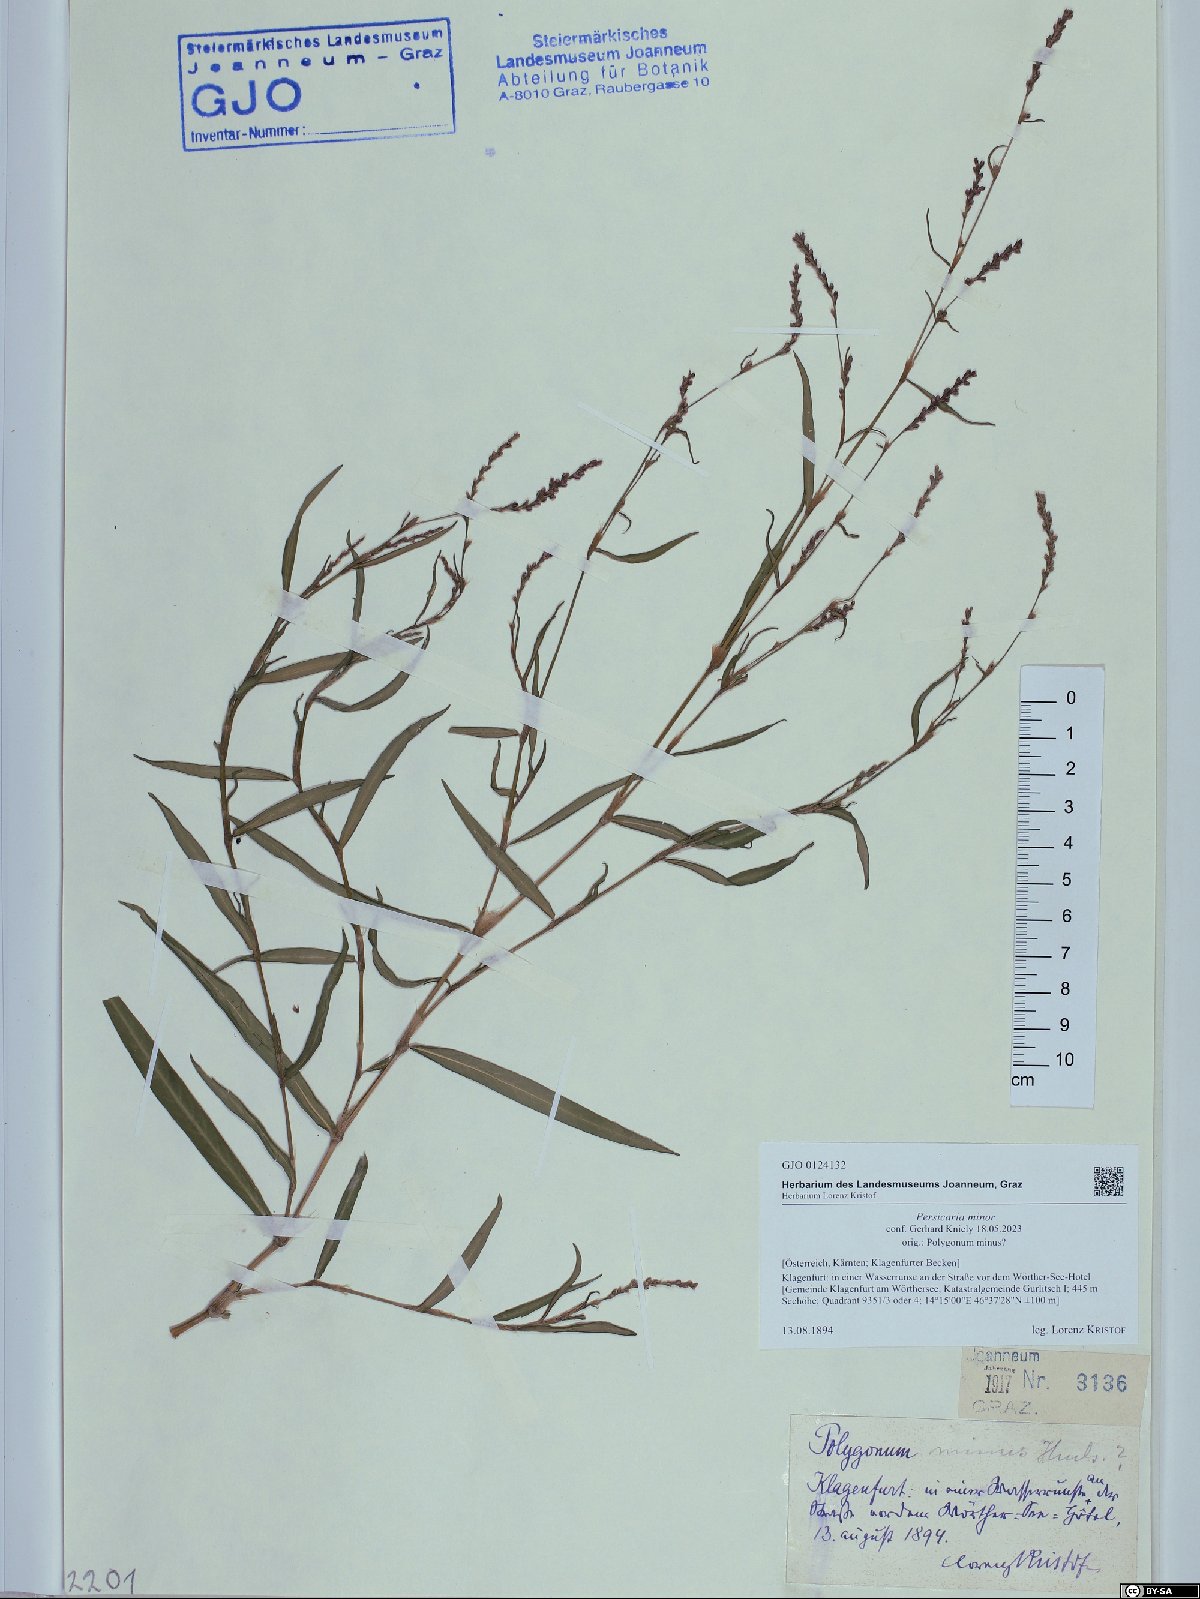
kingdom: Plantae
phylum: Tracheophyta
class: Magnoliopsida
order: Caryophyllales
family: Polygonaceae
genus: Persicaria
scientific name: Persicaria minor
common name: Small water-pepper
